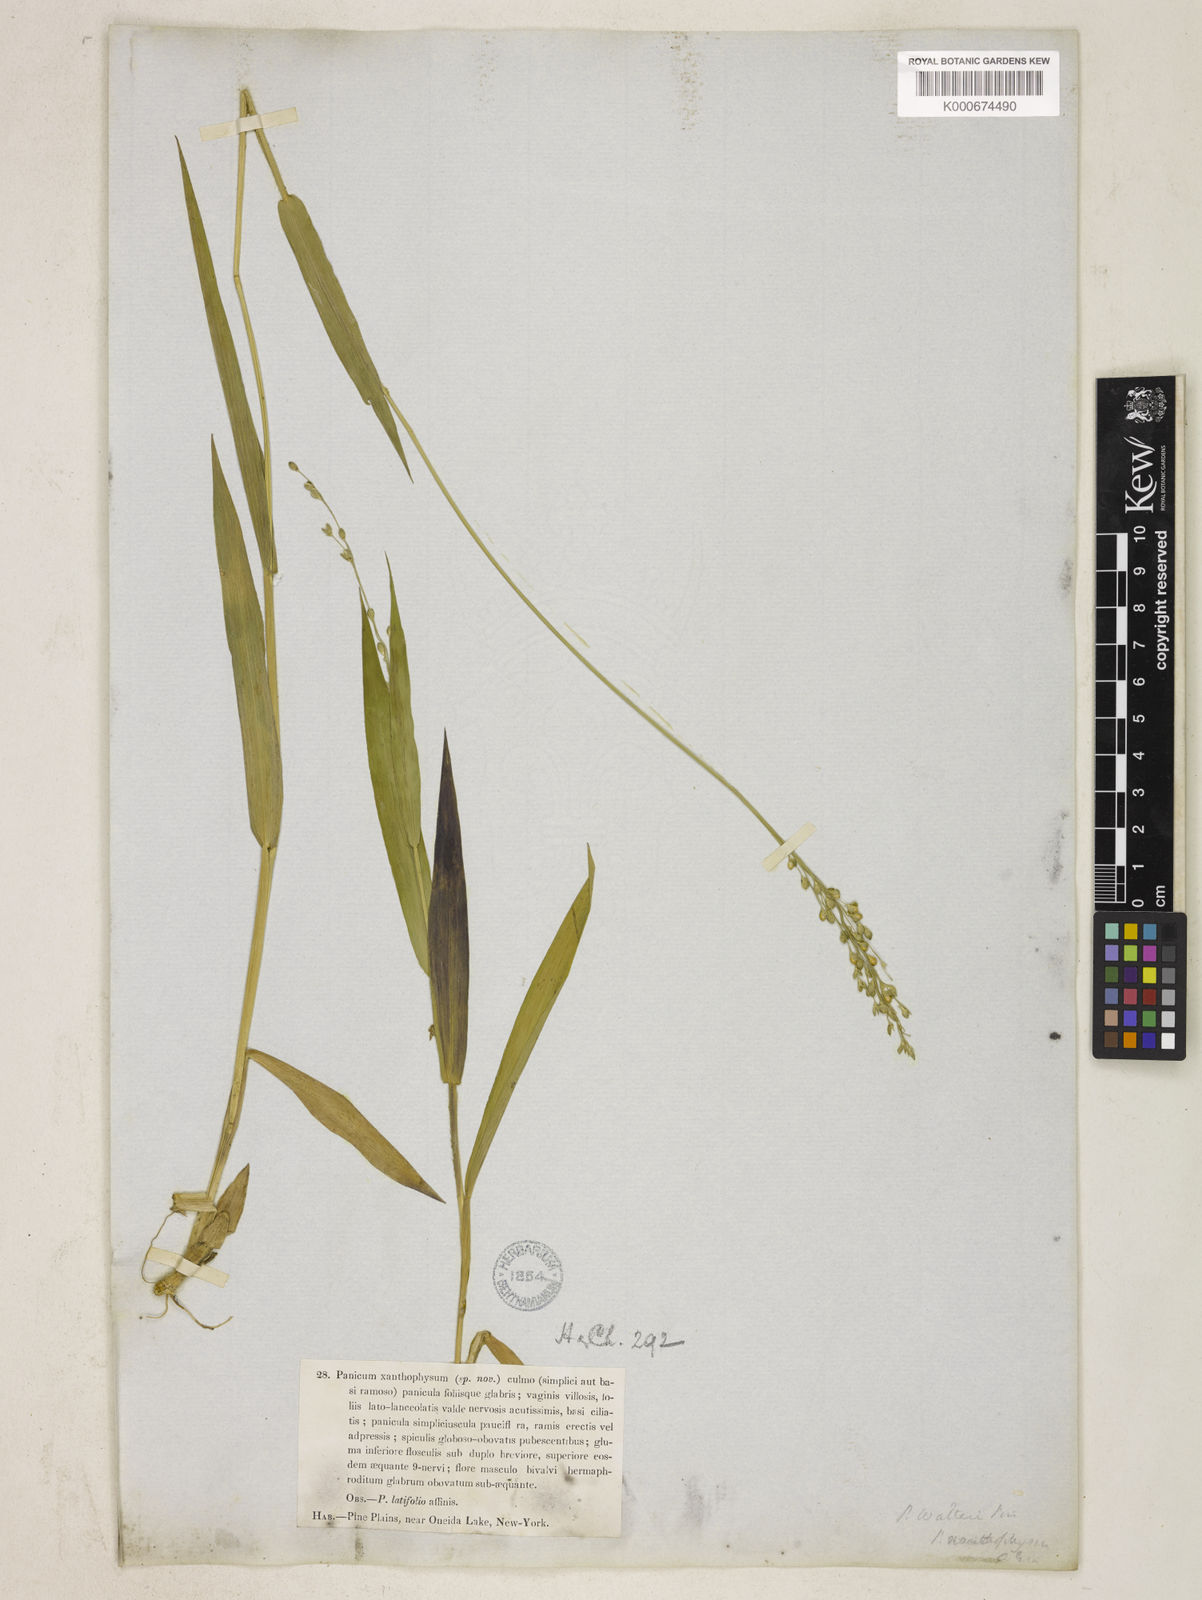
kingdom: Plantae
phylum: Tracheophyta
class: Liliopsida
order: Poales
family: Poaceae
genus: Dichanthelium
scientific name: Dichanthelium xanthophysum
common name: Pale panicgrass
